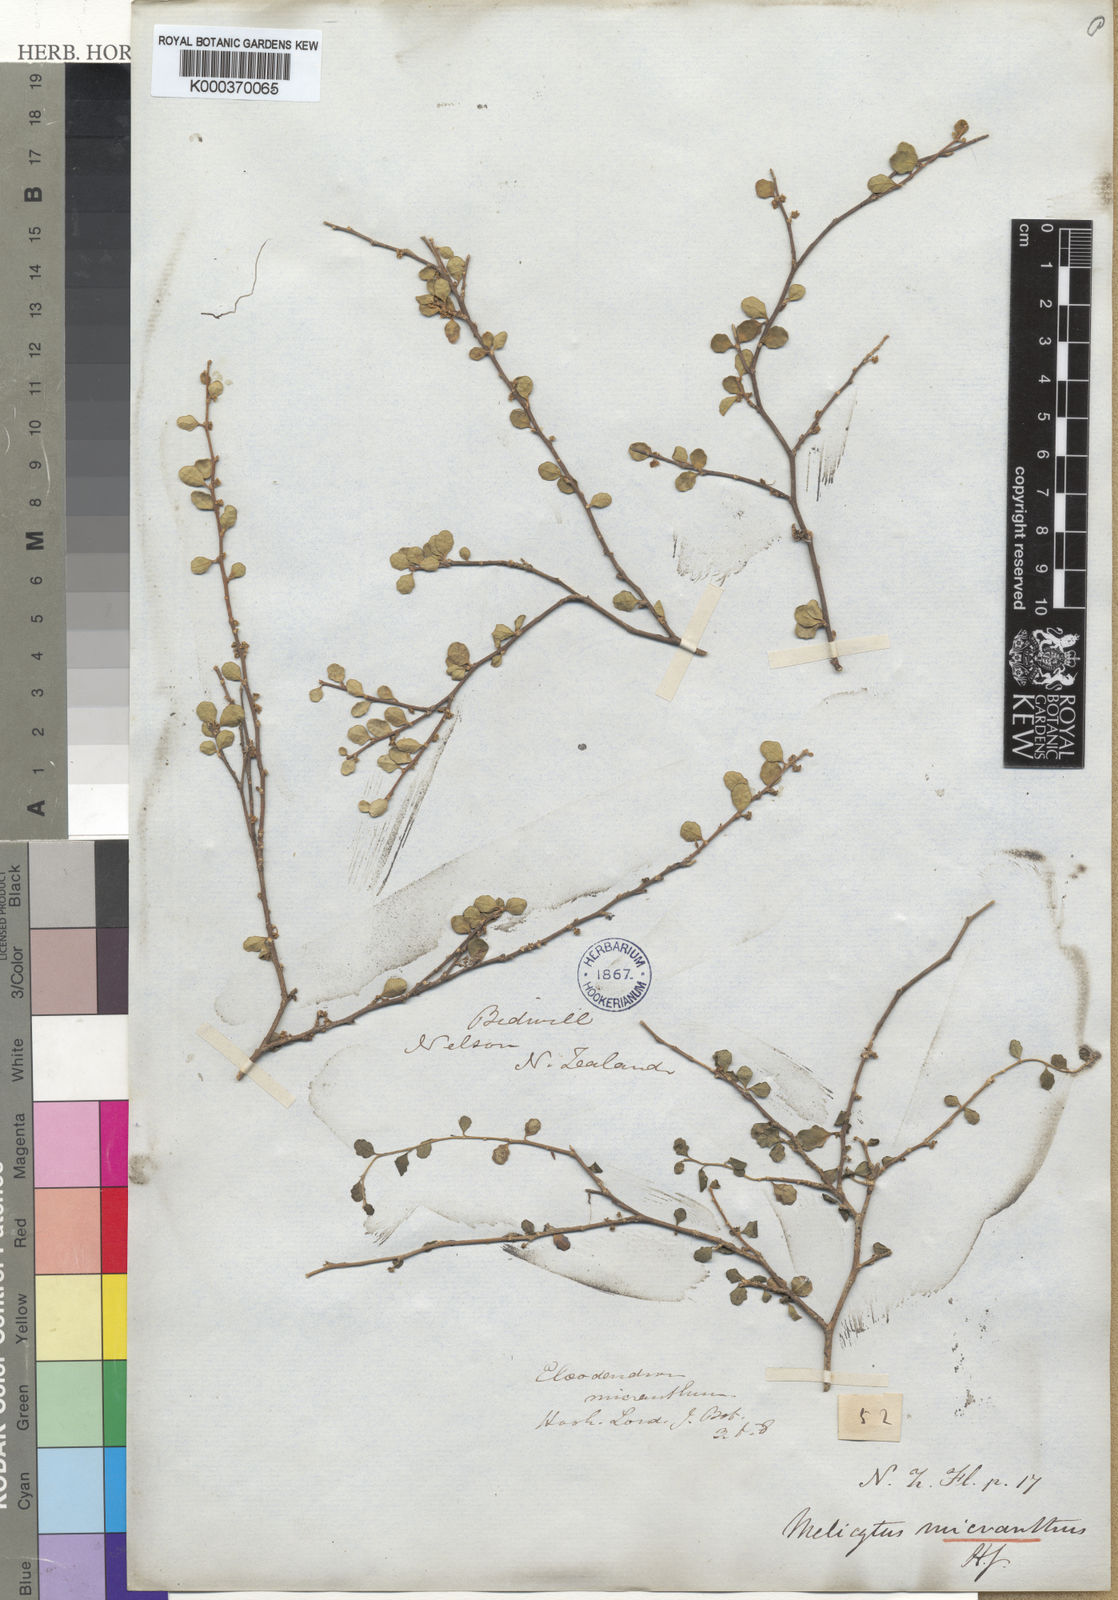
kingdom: Plantae
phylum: Tracheophyta
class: Magnoliopsida
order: Malpighiales
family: Violaceae
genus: Melicytus
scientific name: Melicytus micranthus
